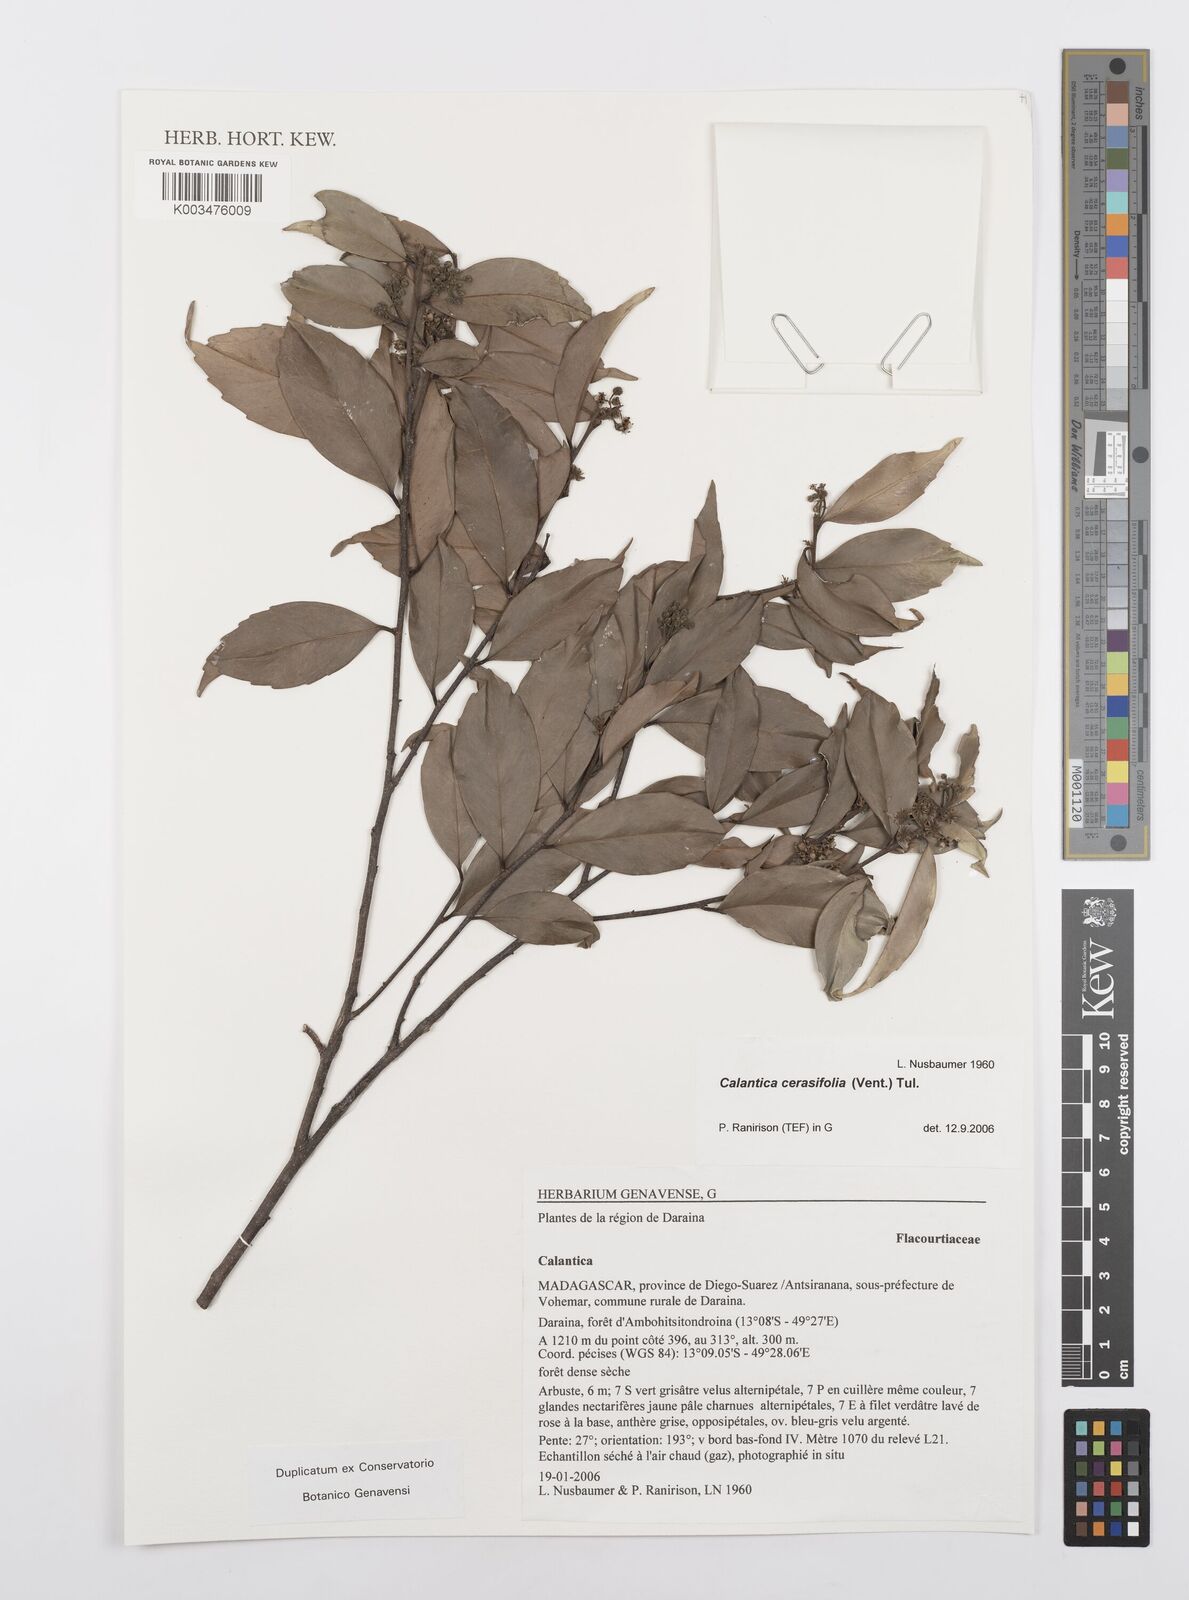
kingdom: Plantae
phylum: Tracheophyta
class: Magnoliopsida
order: Malpighiales
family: Salicaceae
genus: Calantica
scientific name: Calantica cerasifolia
